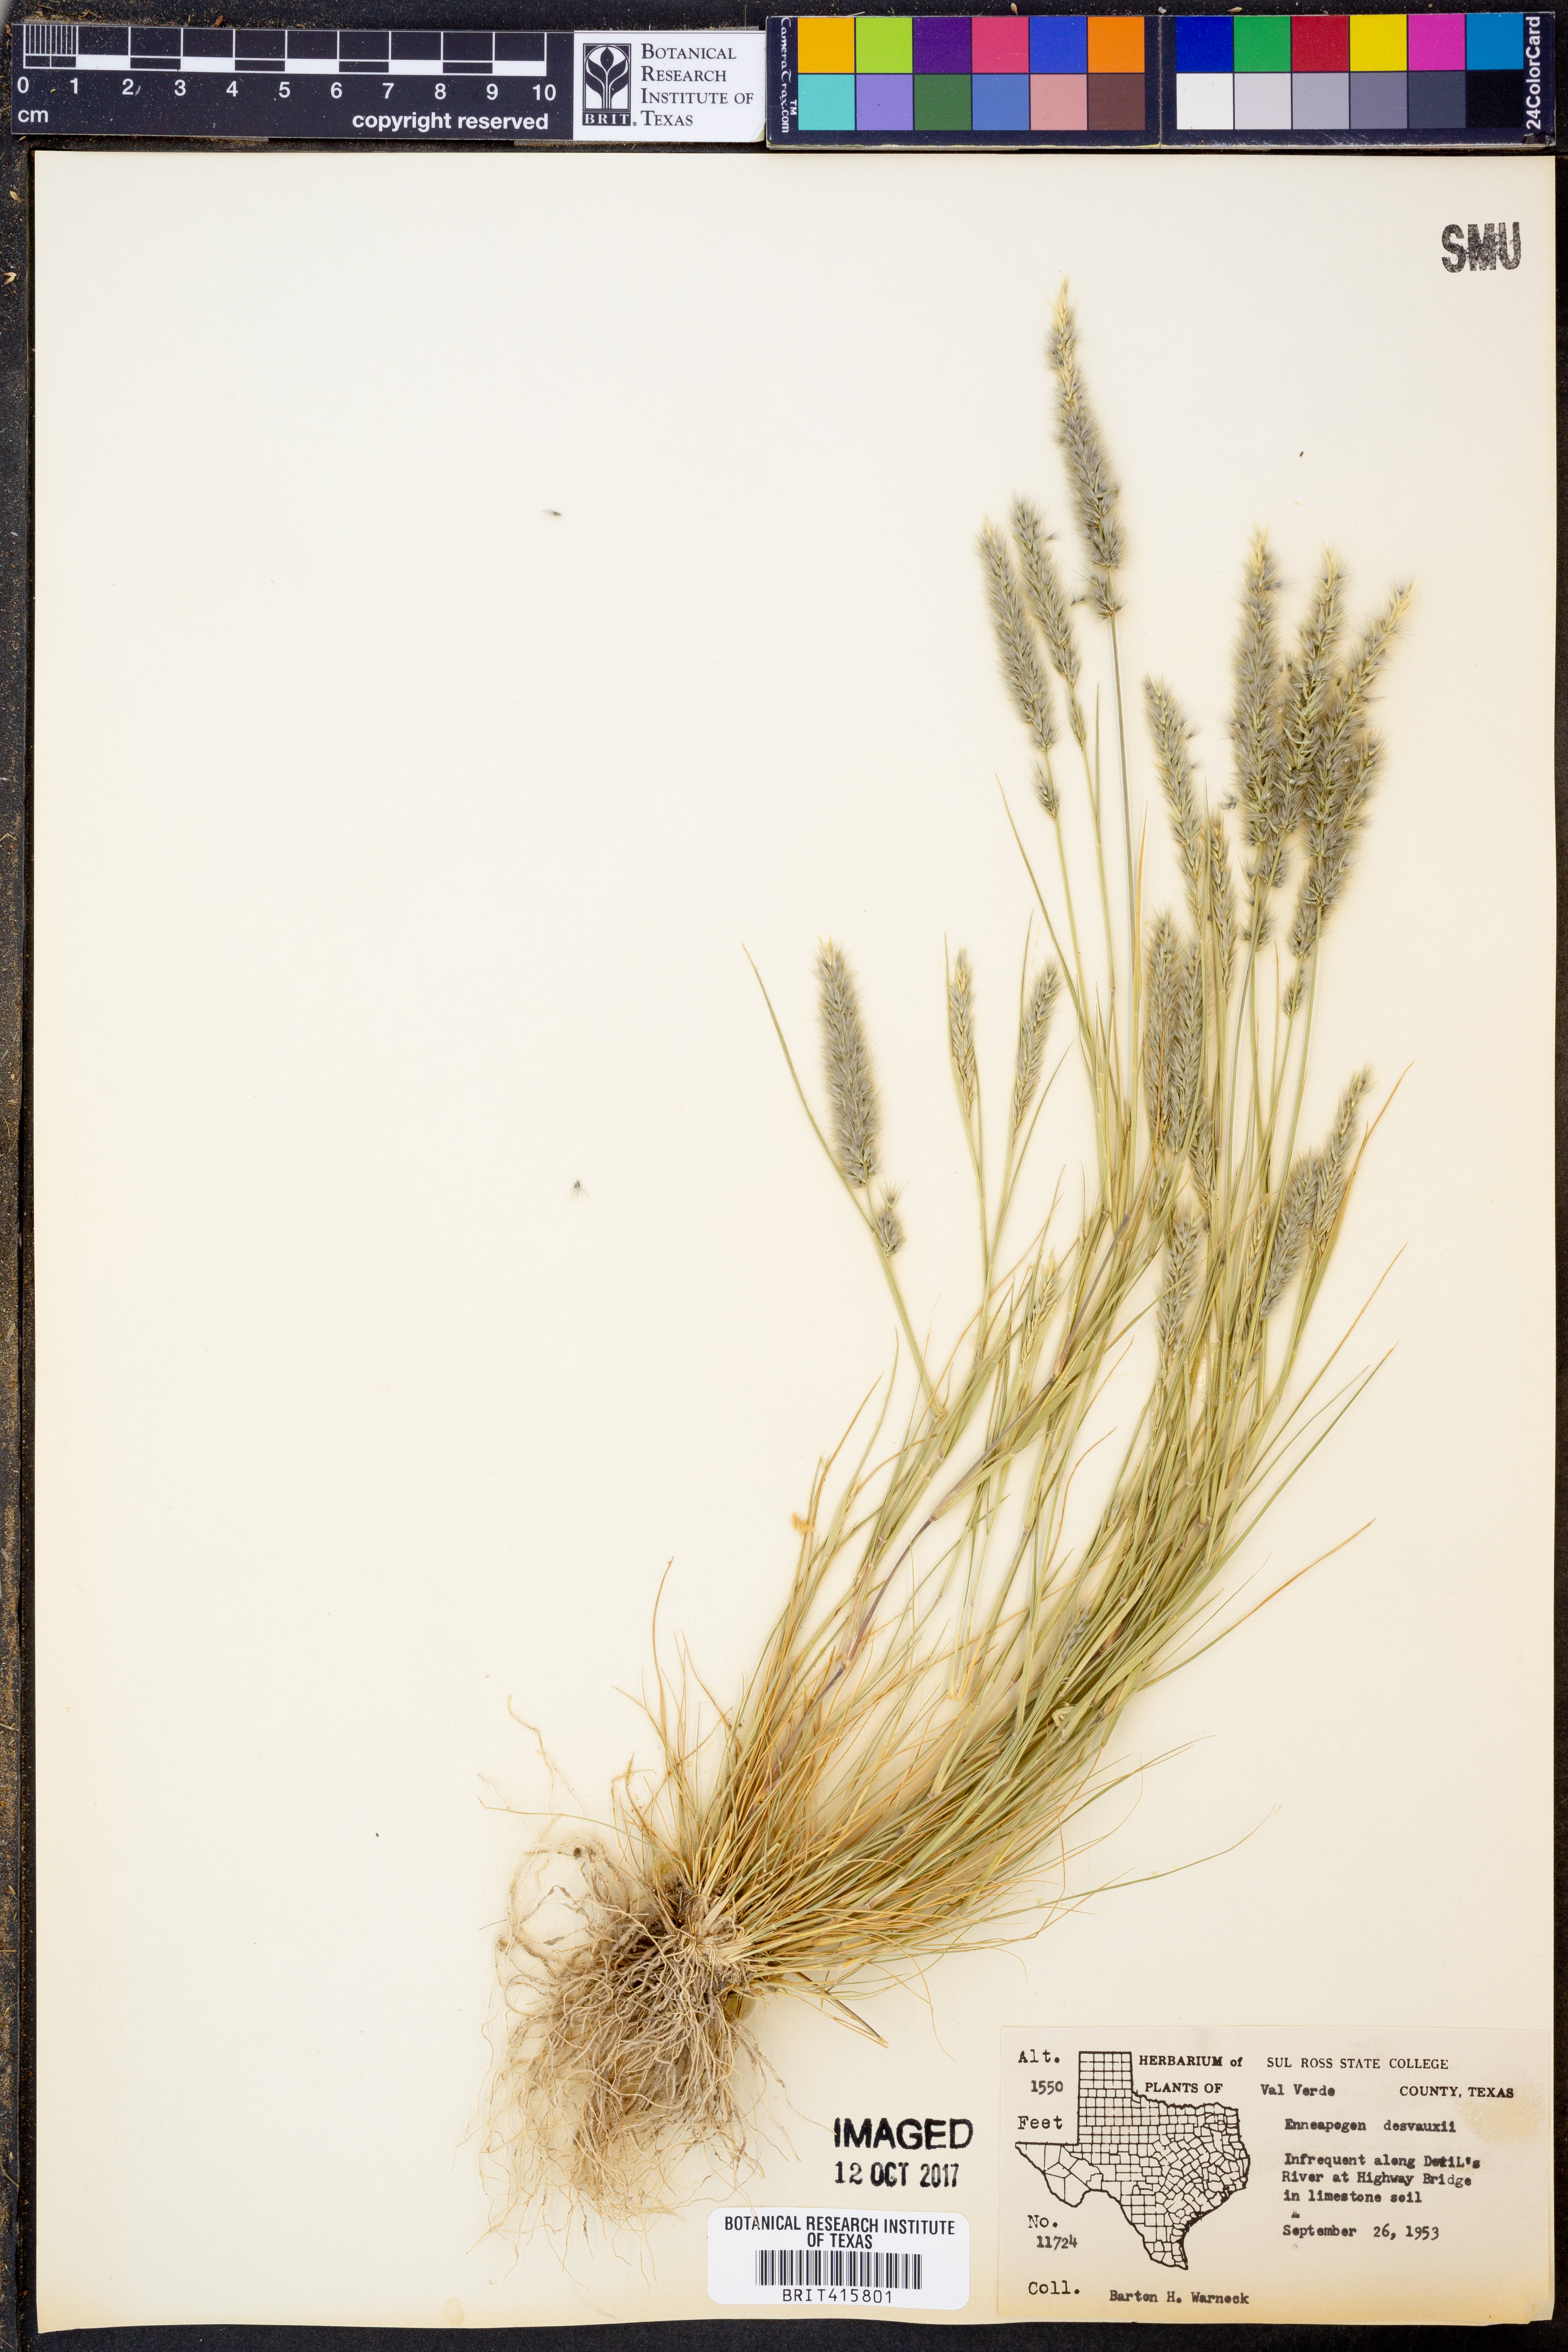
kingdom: Plantae
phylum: Tracheophyta
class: Liliopsida
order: Poales
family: Poaceae
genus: Enneapogon
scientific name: Enneapogon desvauxii
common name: Feather pappus grass
